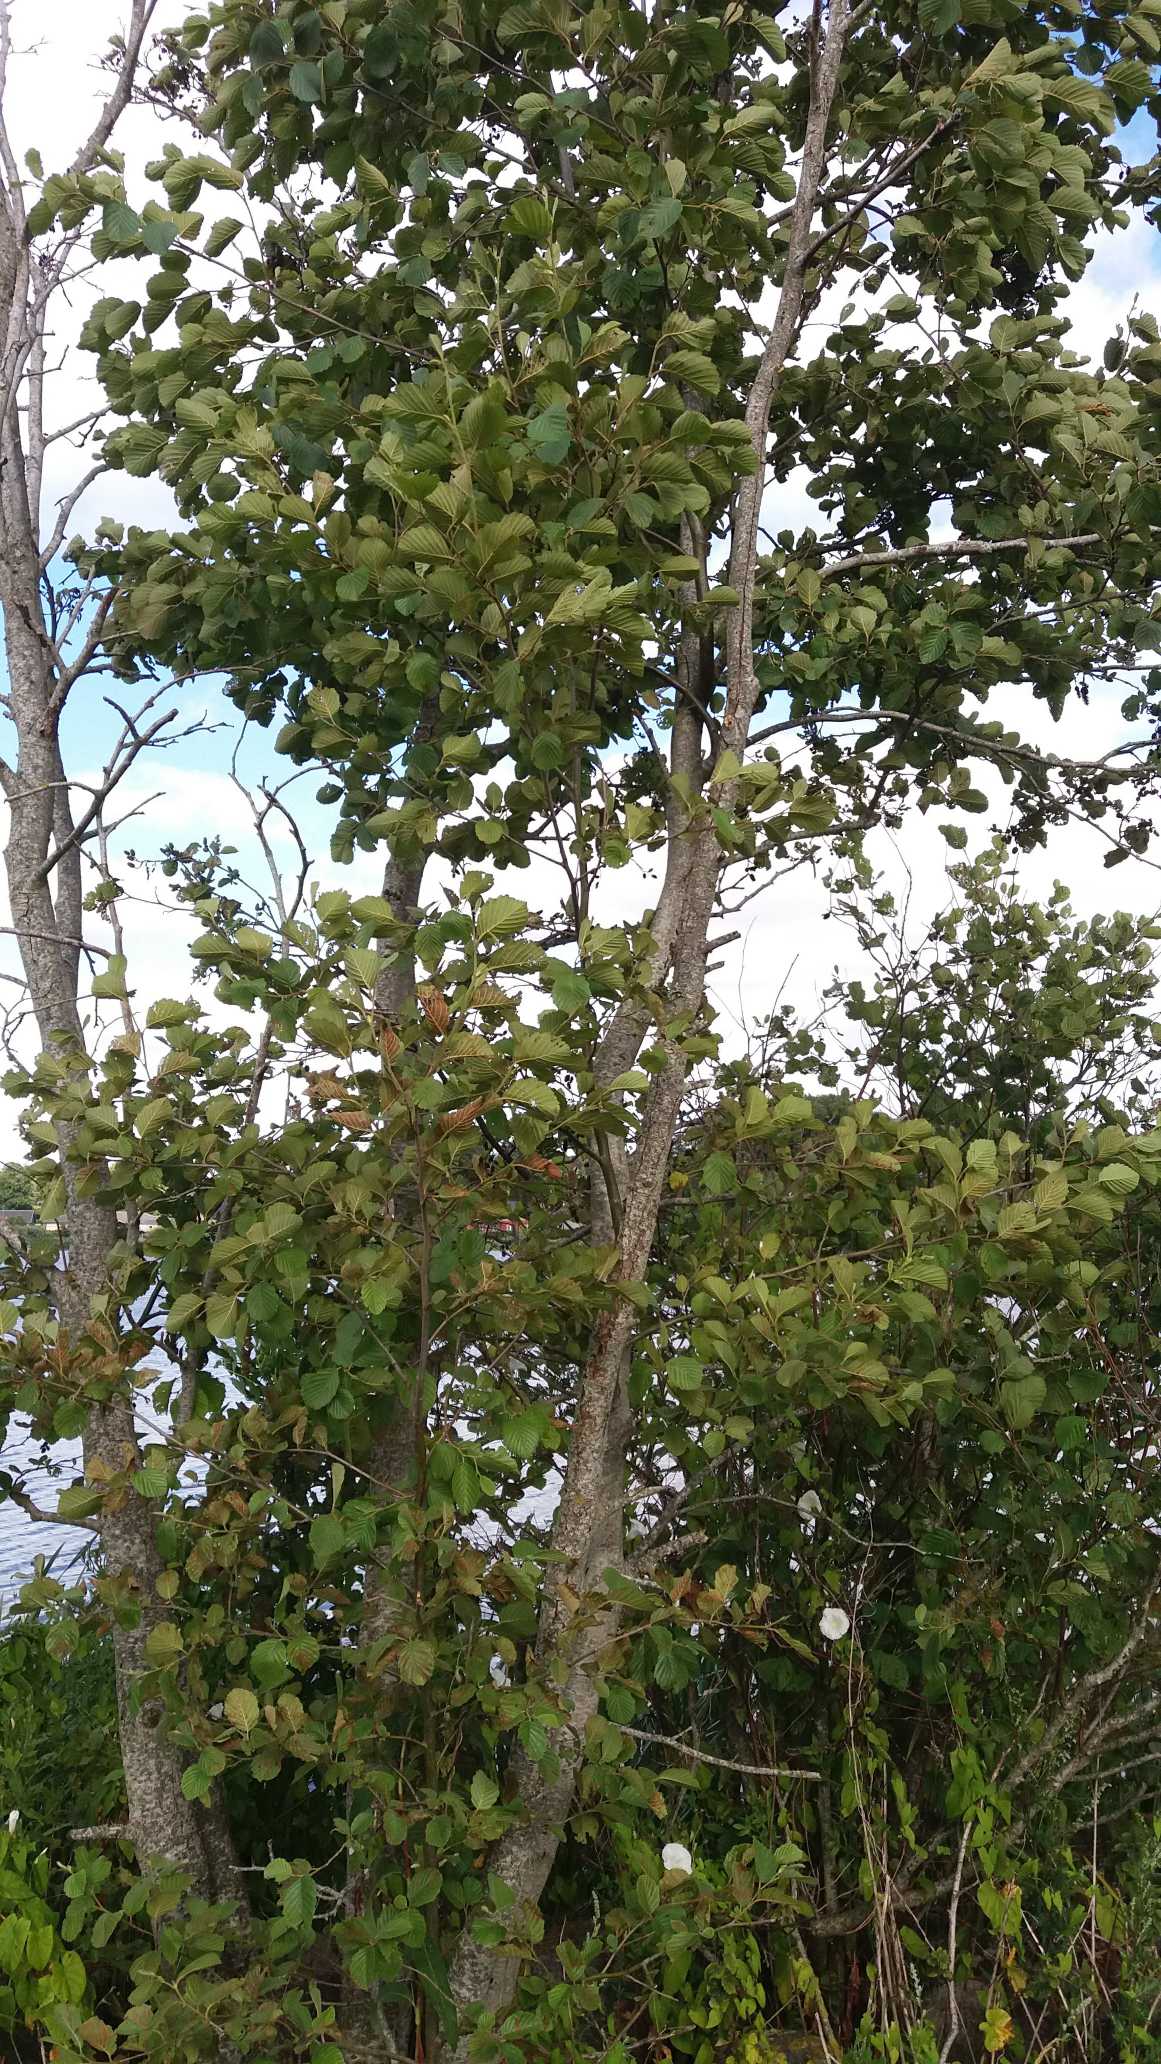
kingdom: Plantae
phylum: Tracheophyta
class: Magnoliopsida
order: Fagales
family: Betulaceae
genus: Alnus
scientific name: Alnus glutinosa
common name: Rød-el
